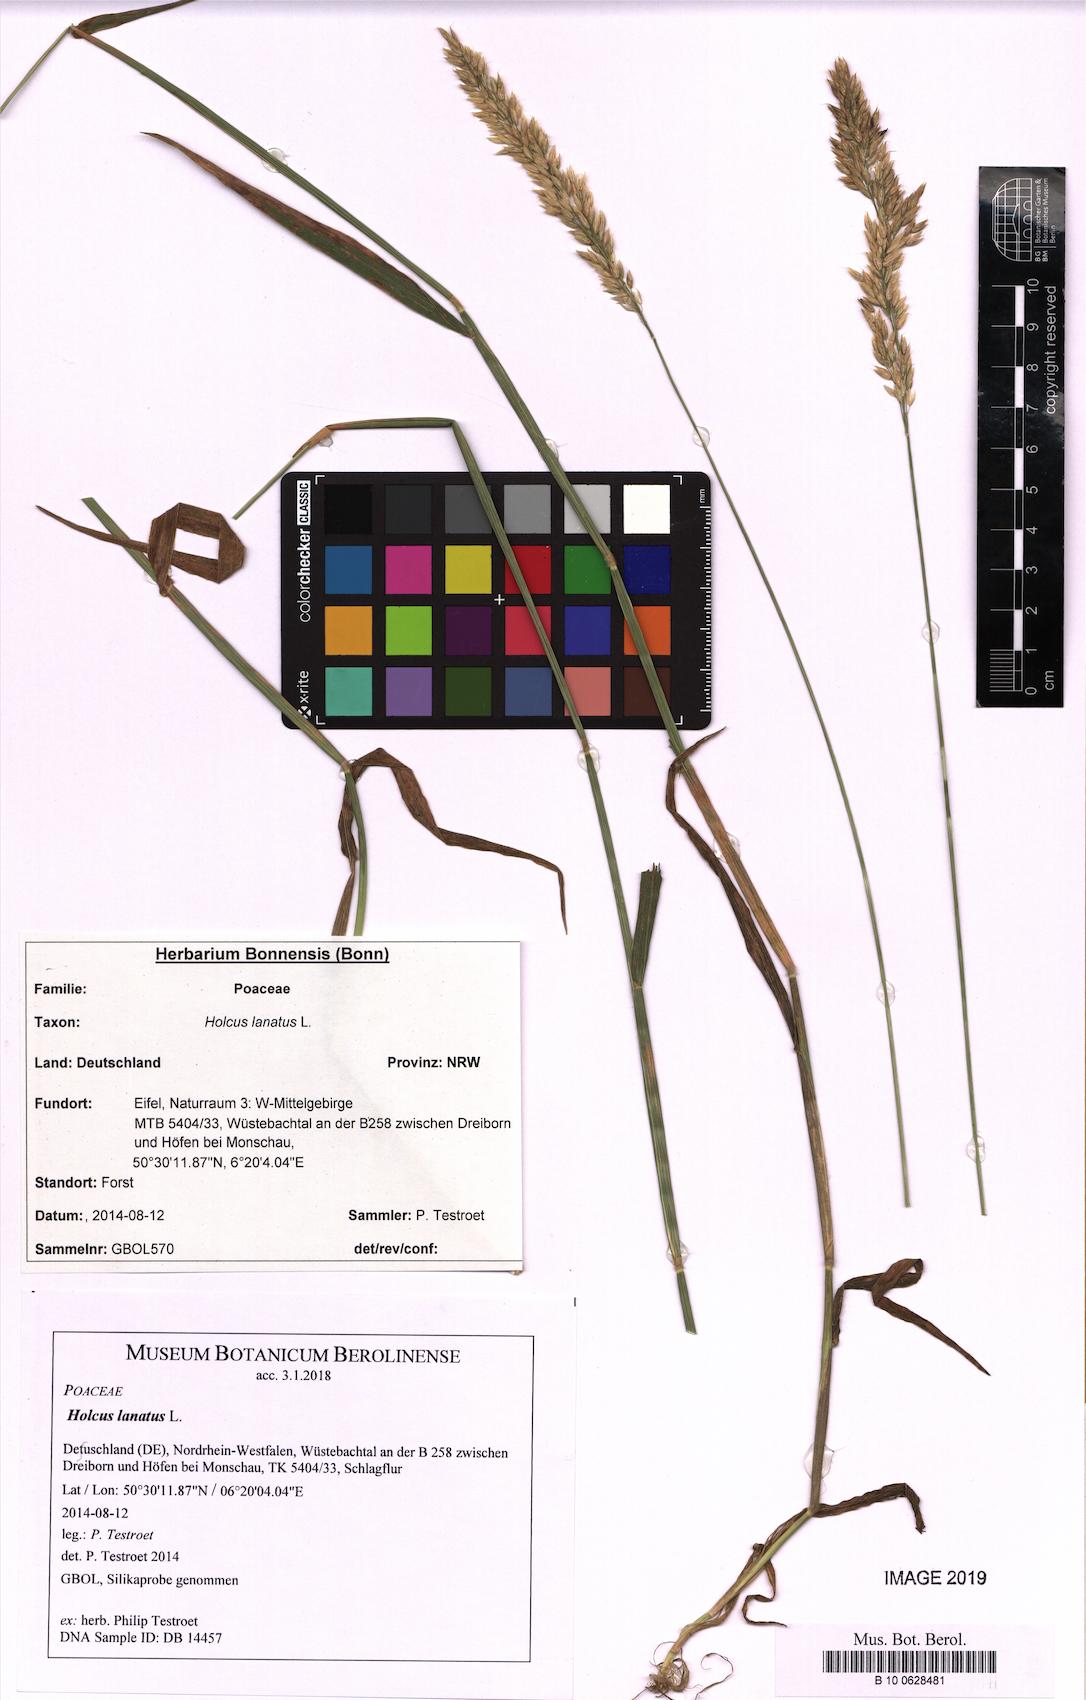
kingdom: Plantae
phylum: Tracheophyta
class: Liliopsida
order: Poales
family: Poaceae
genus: Holcus
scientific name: Holcus lanatus
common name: Yorkshire-fog
